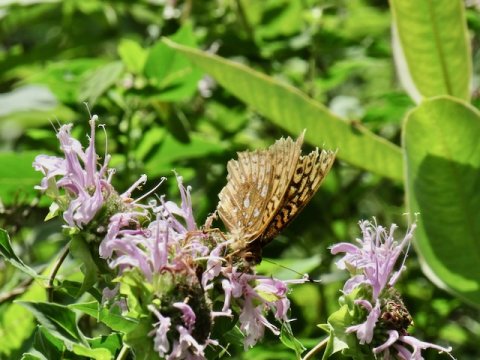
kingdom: Animalia
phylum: Arthropoda
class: Insecta
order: Lepidoptera
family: Nymphalidae
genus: Speyeria
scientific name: Speyeria cybele
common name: Great Spangled Fritillary
